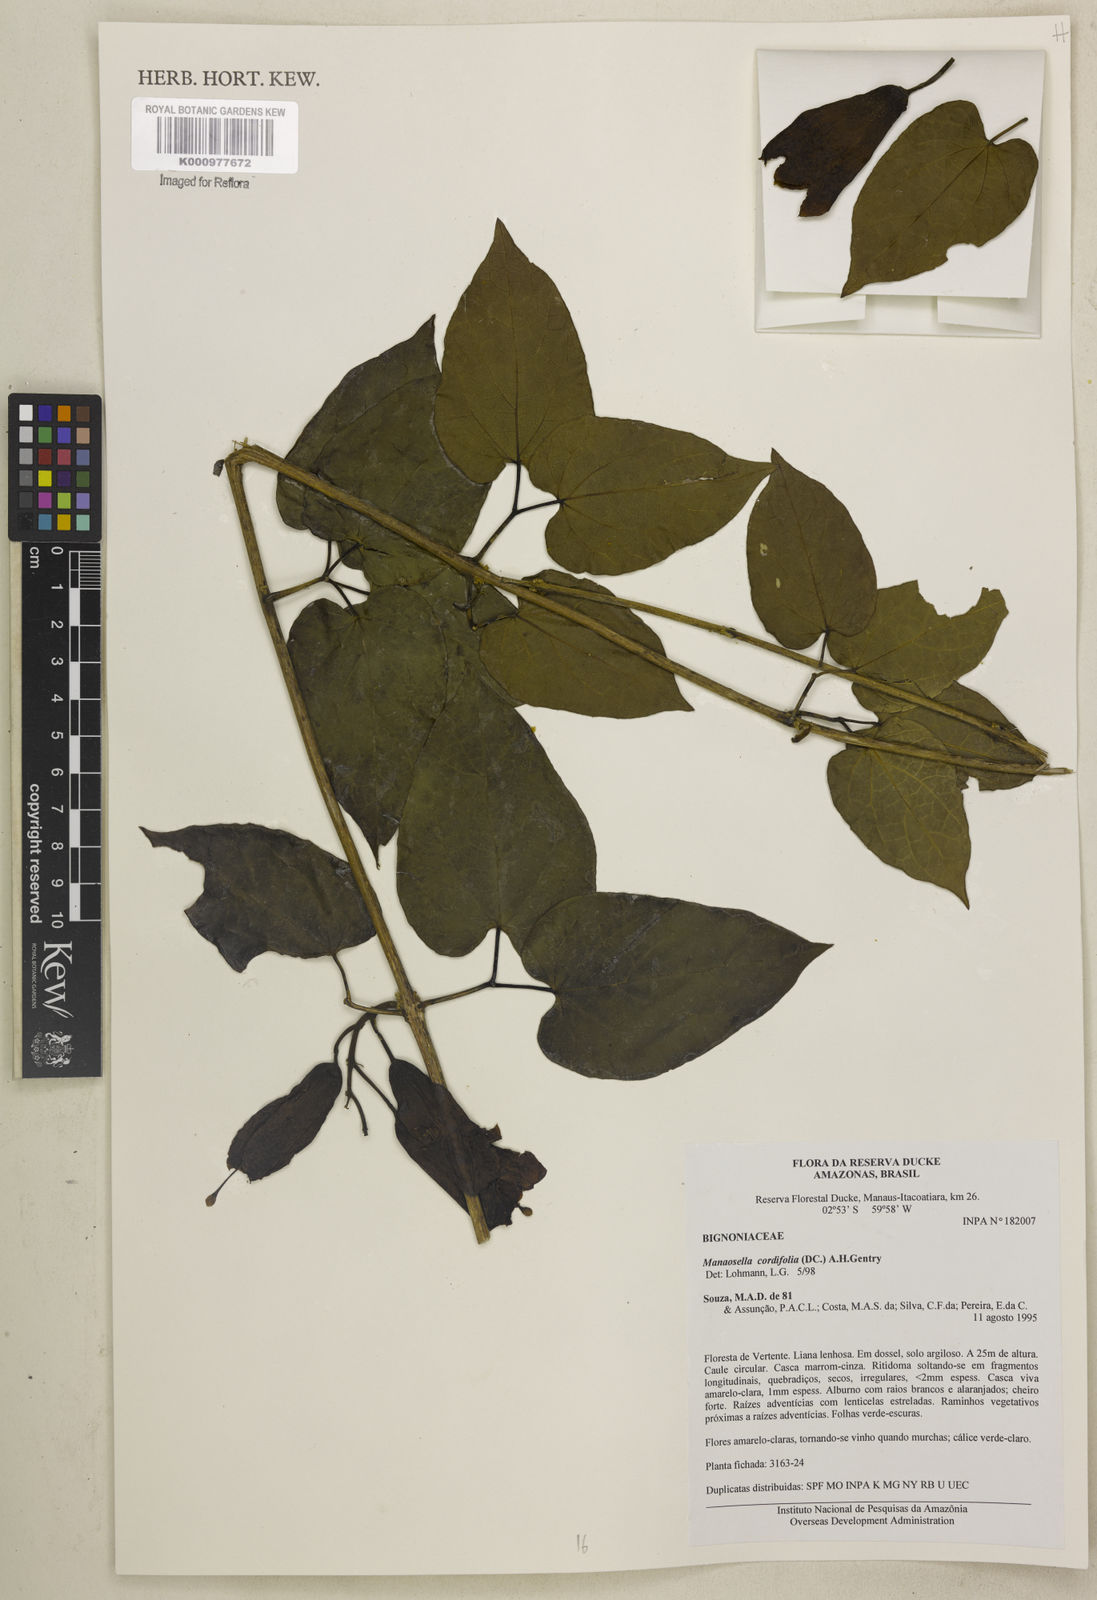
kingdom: Plantae
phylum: Tracheophyta
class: Magnoliopsida
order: Lamiales
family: Bignoniaceae
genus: Manaosella
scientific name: Manaosella cordifolia
